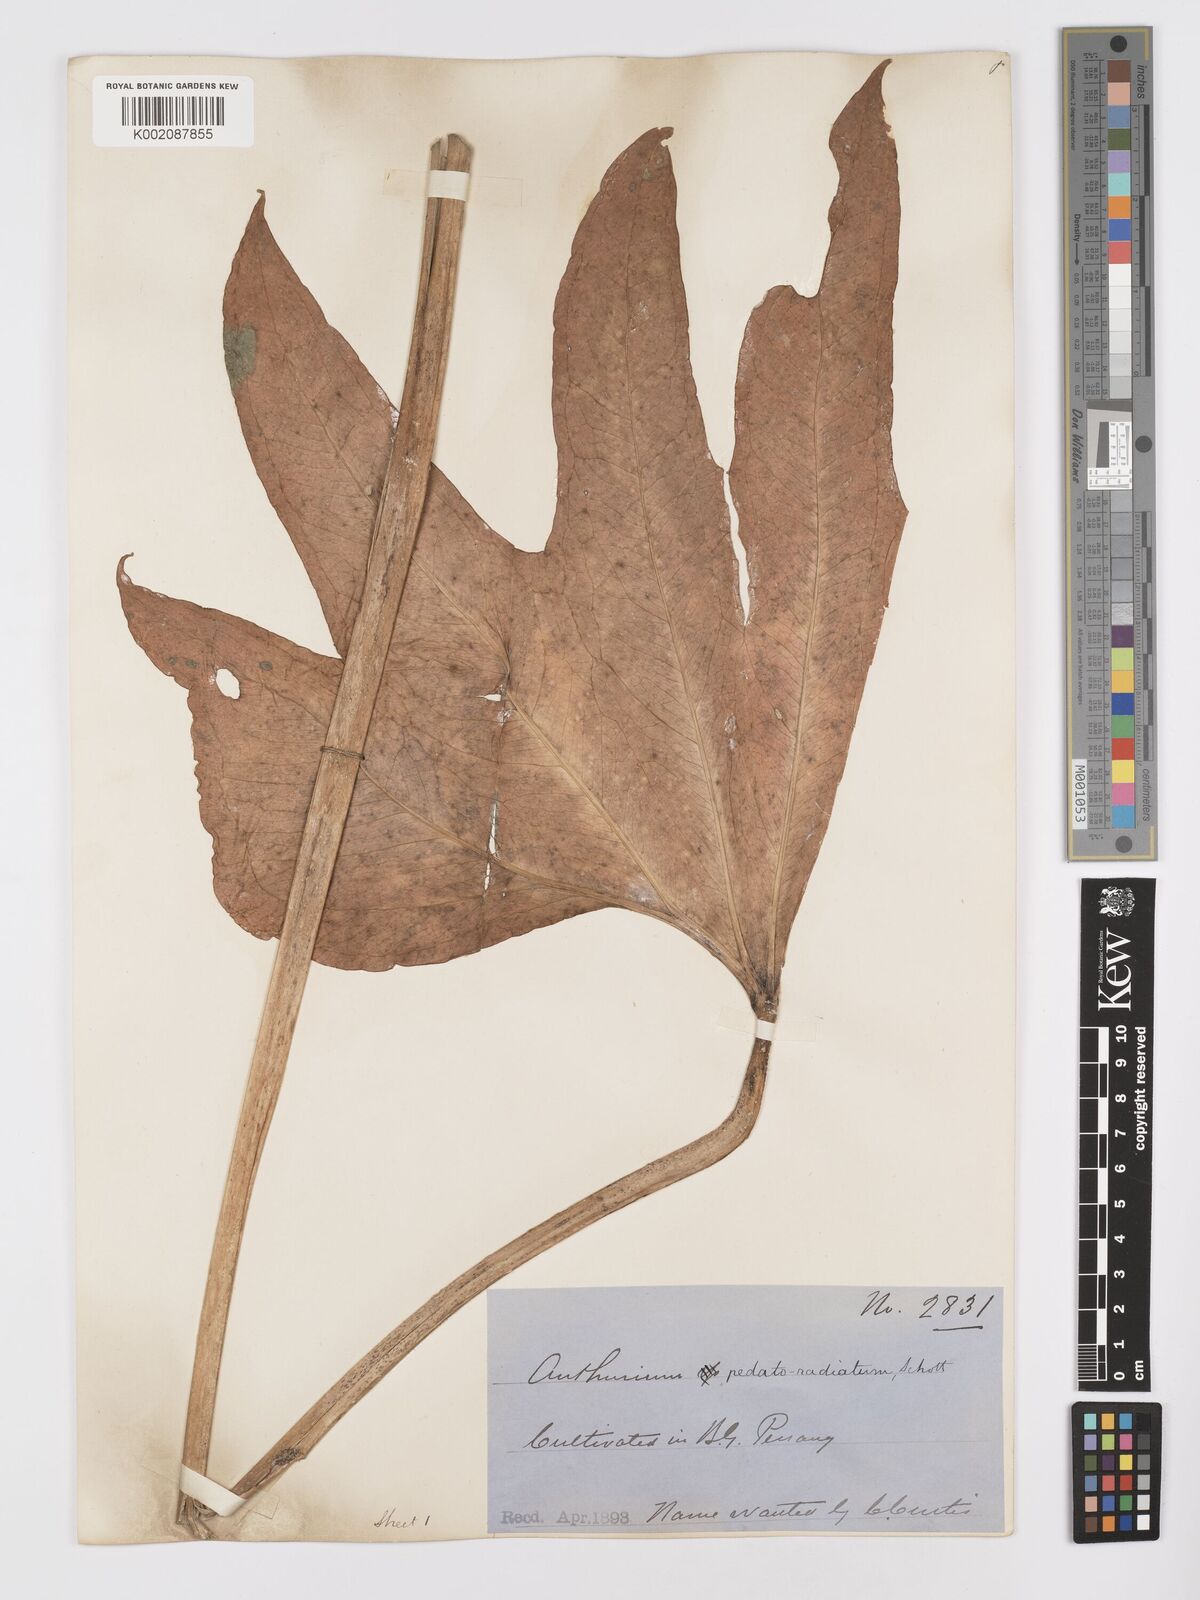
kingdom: Plantae
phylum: Tracheophyta
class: Liliopsida
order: Alismatales
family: Araceae
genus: Anthurium
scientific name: Anthurium pedatoradiatum
